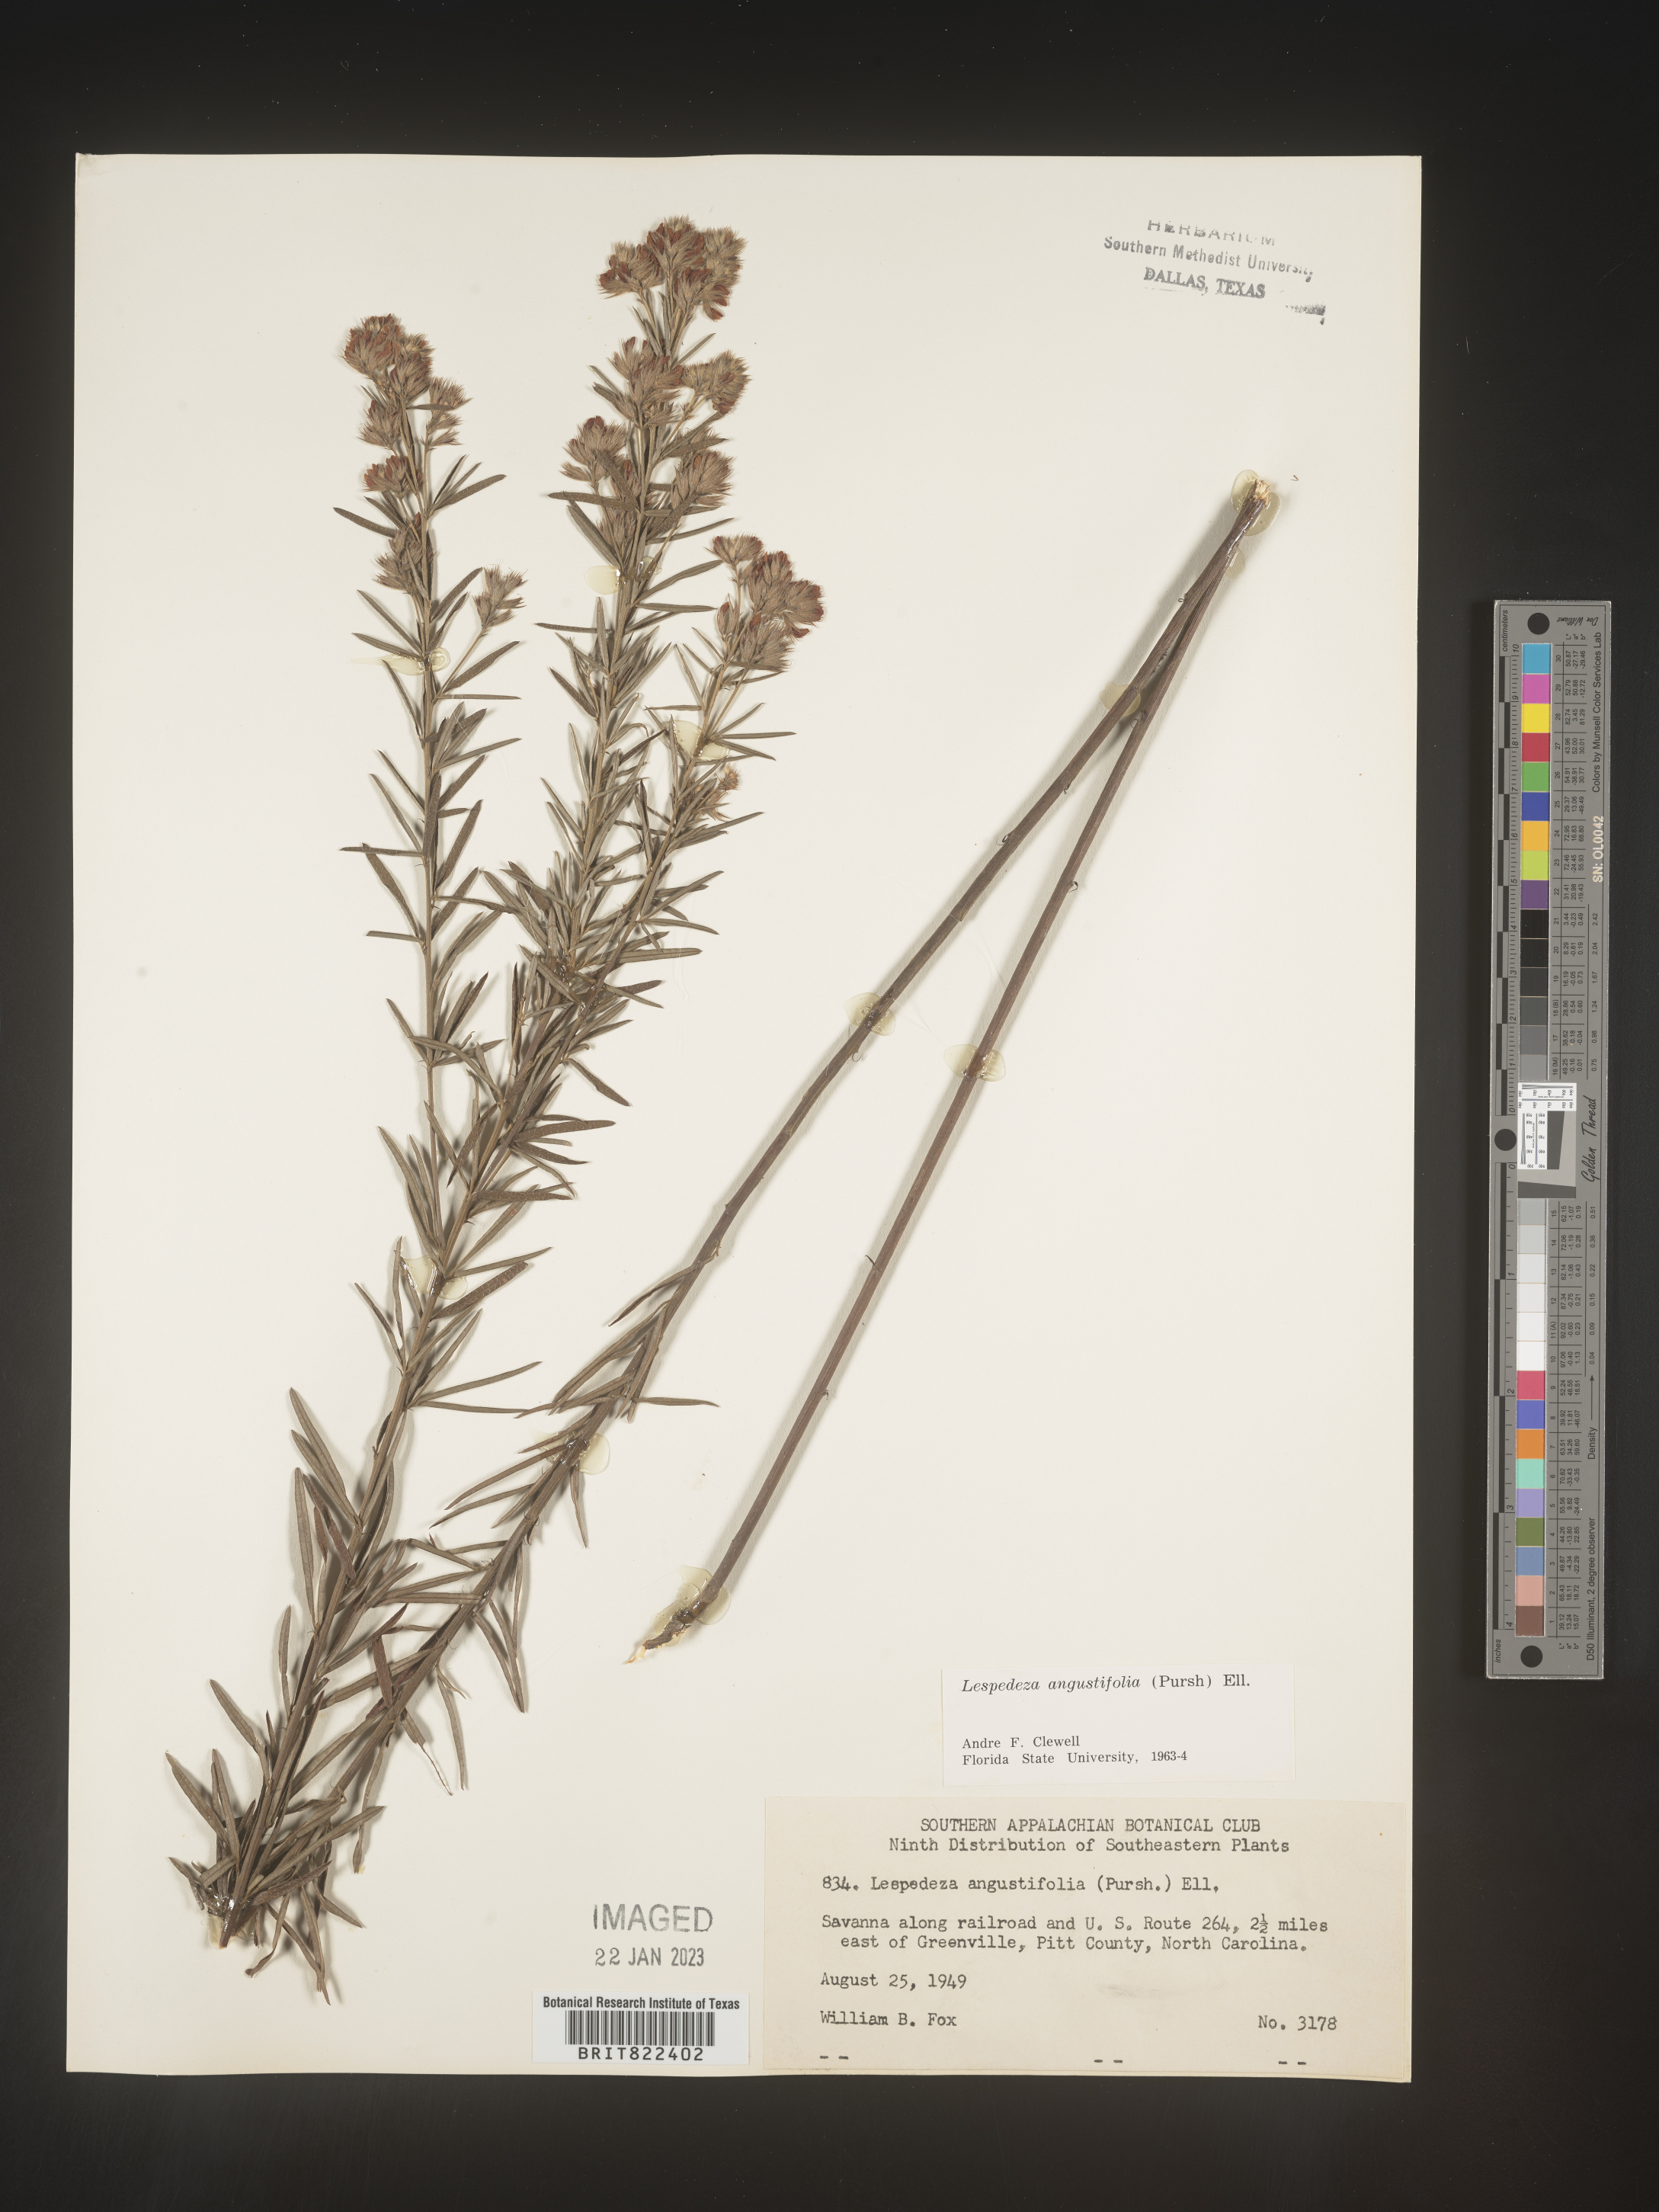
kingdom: Plantae
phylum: Tracheophyta
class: Magnoliopsida
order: Fabales
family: Fabaceae
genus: Lespedeza
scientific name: Lespedeza
